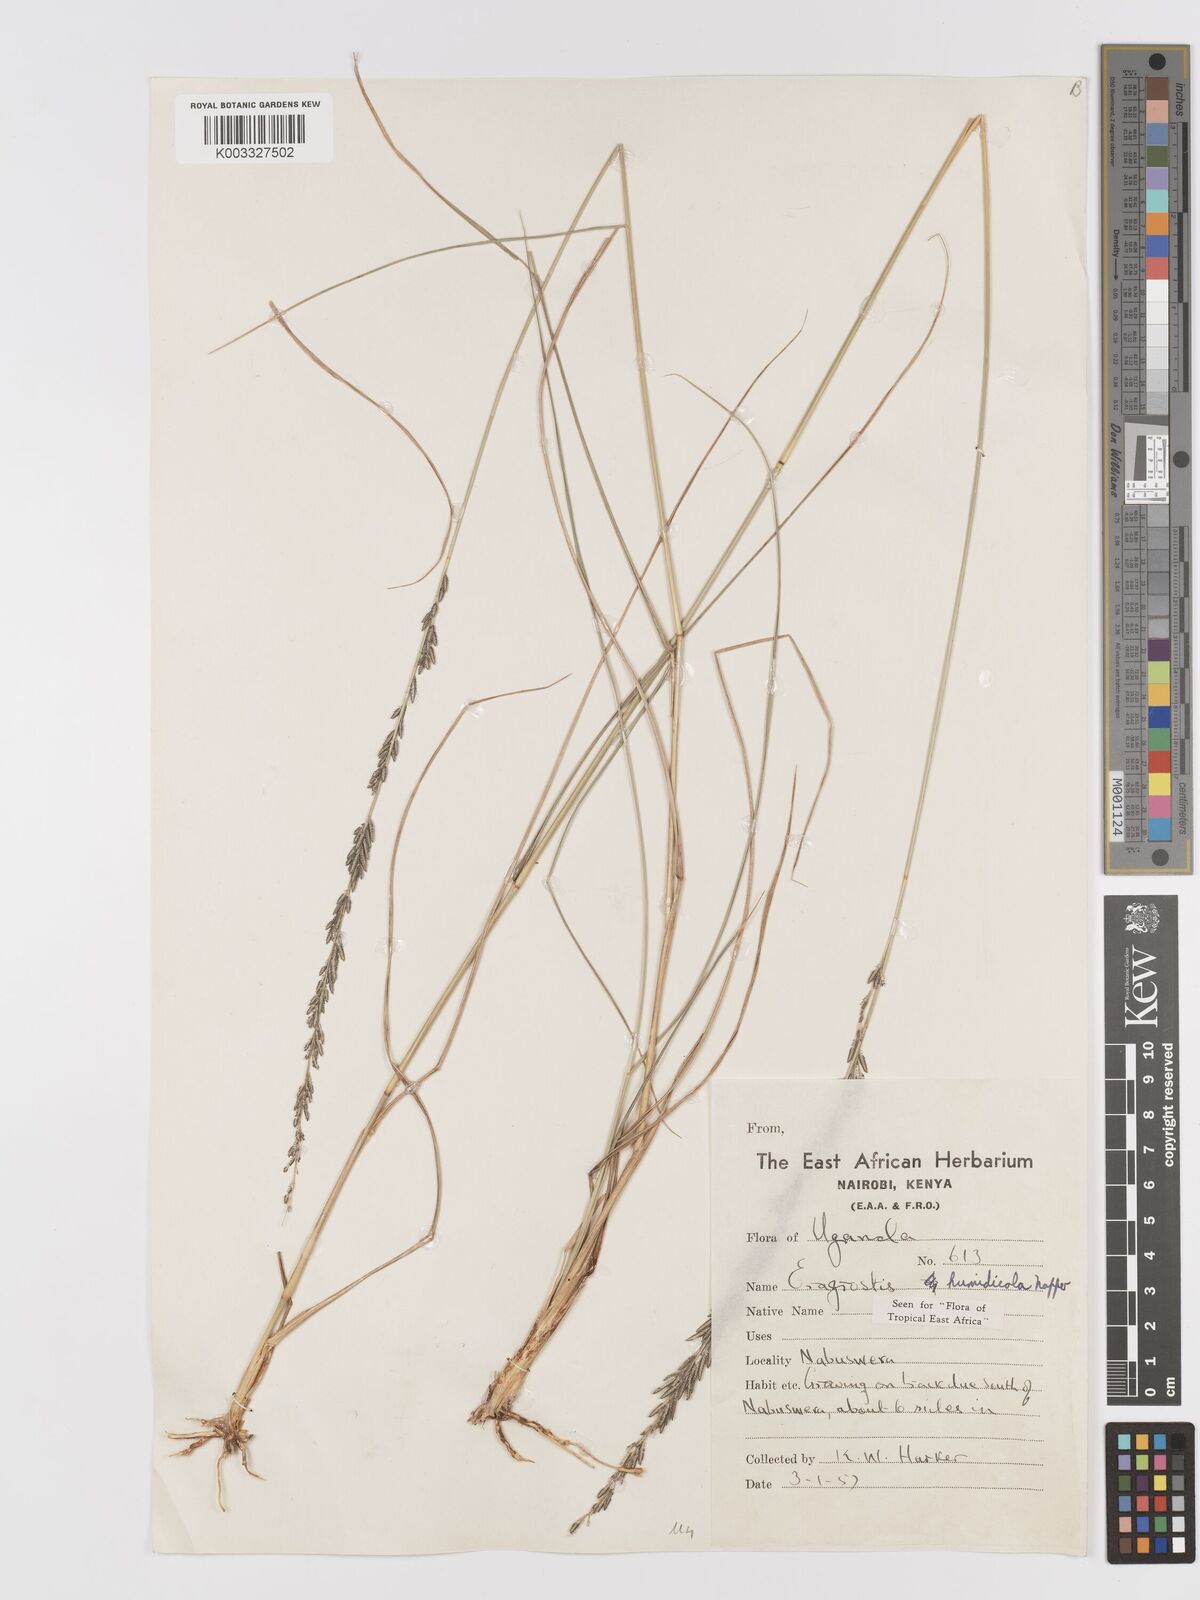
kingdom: Plantae
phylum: Tracheophyta
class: Liliopsida
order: Poales
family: Poaceae
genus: Eragrostis
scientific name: Eragrostis humidicola
